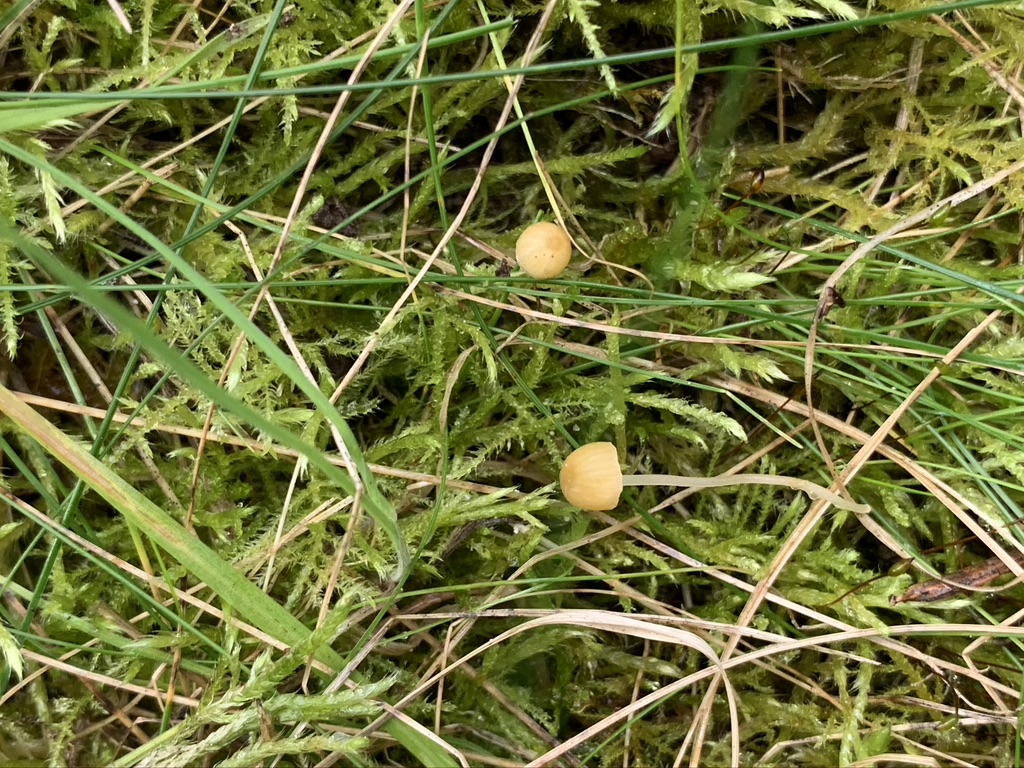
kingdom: Fungi
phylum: Basidiomycota
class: Agaricomycetes
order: Hymenochaetales
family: Rickenellaceae
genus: Rickenella
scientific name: Rickenella swartzii
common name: finstokket mosnavlehat
